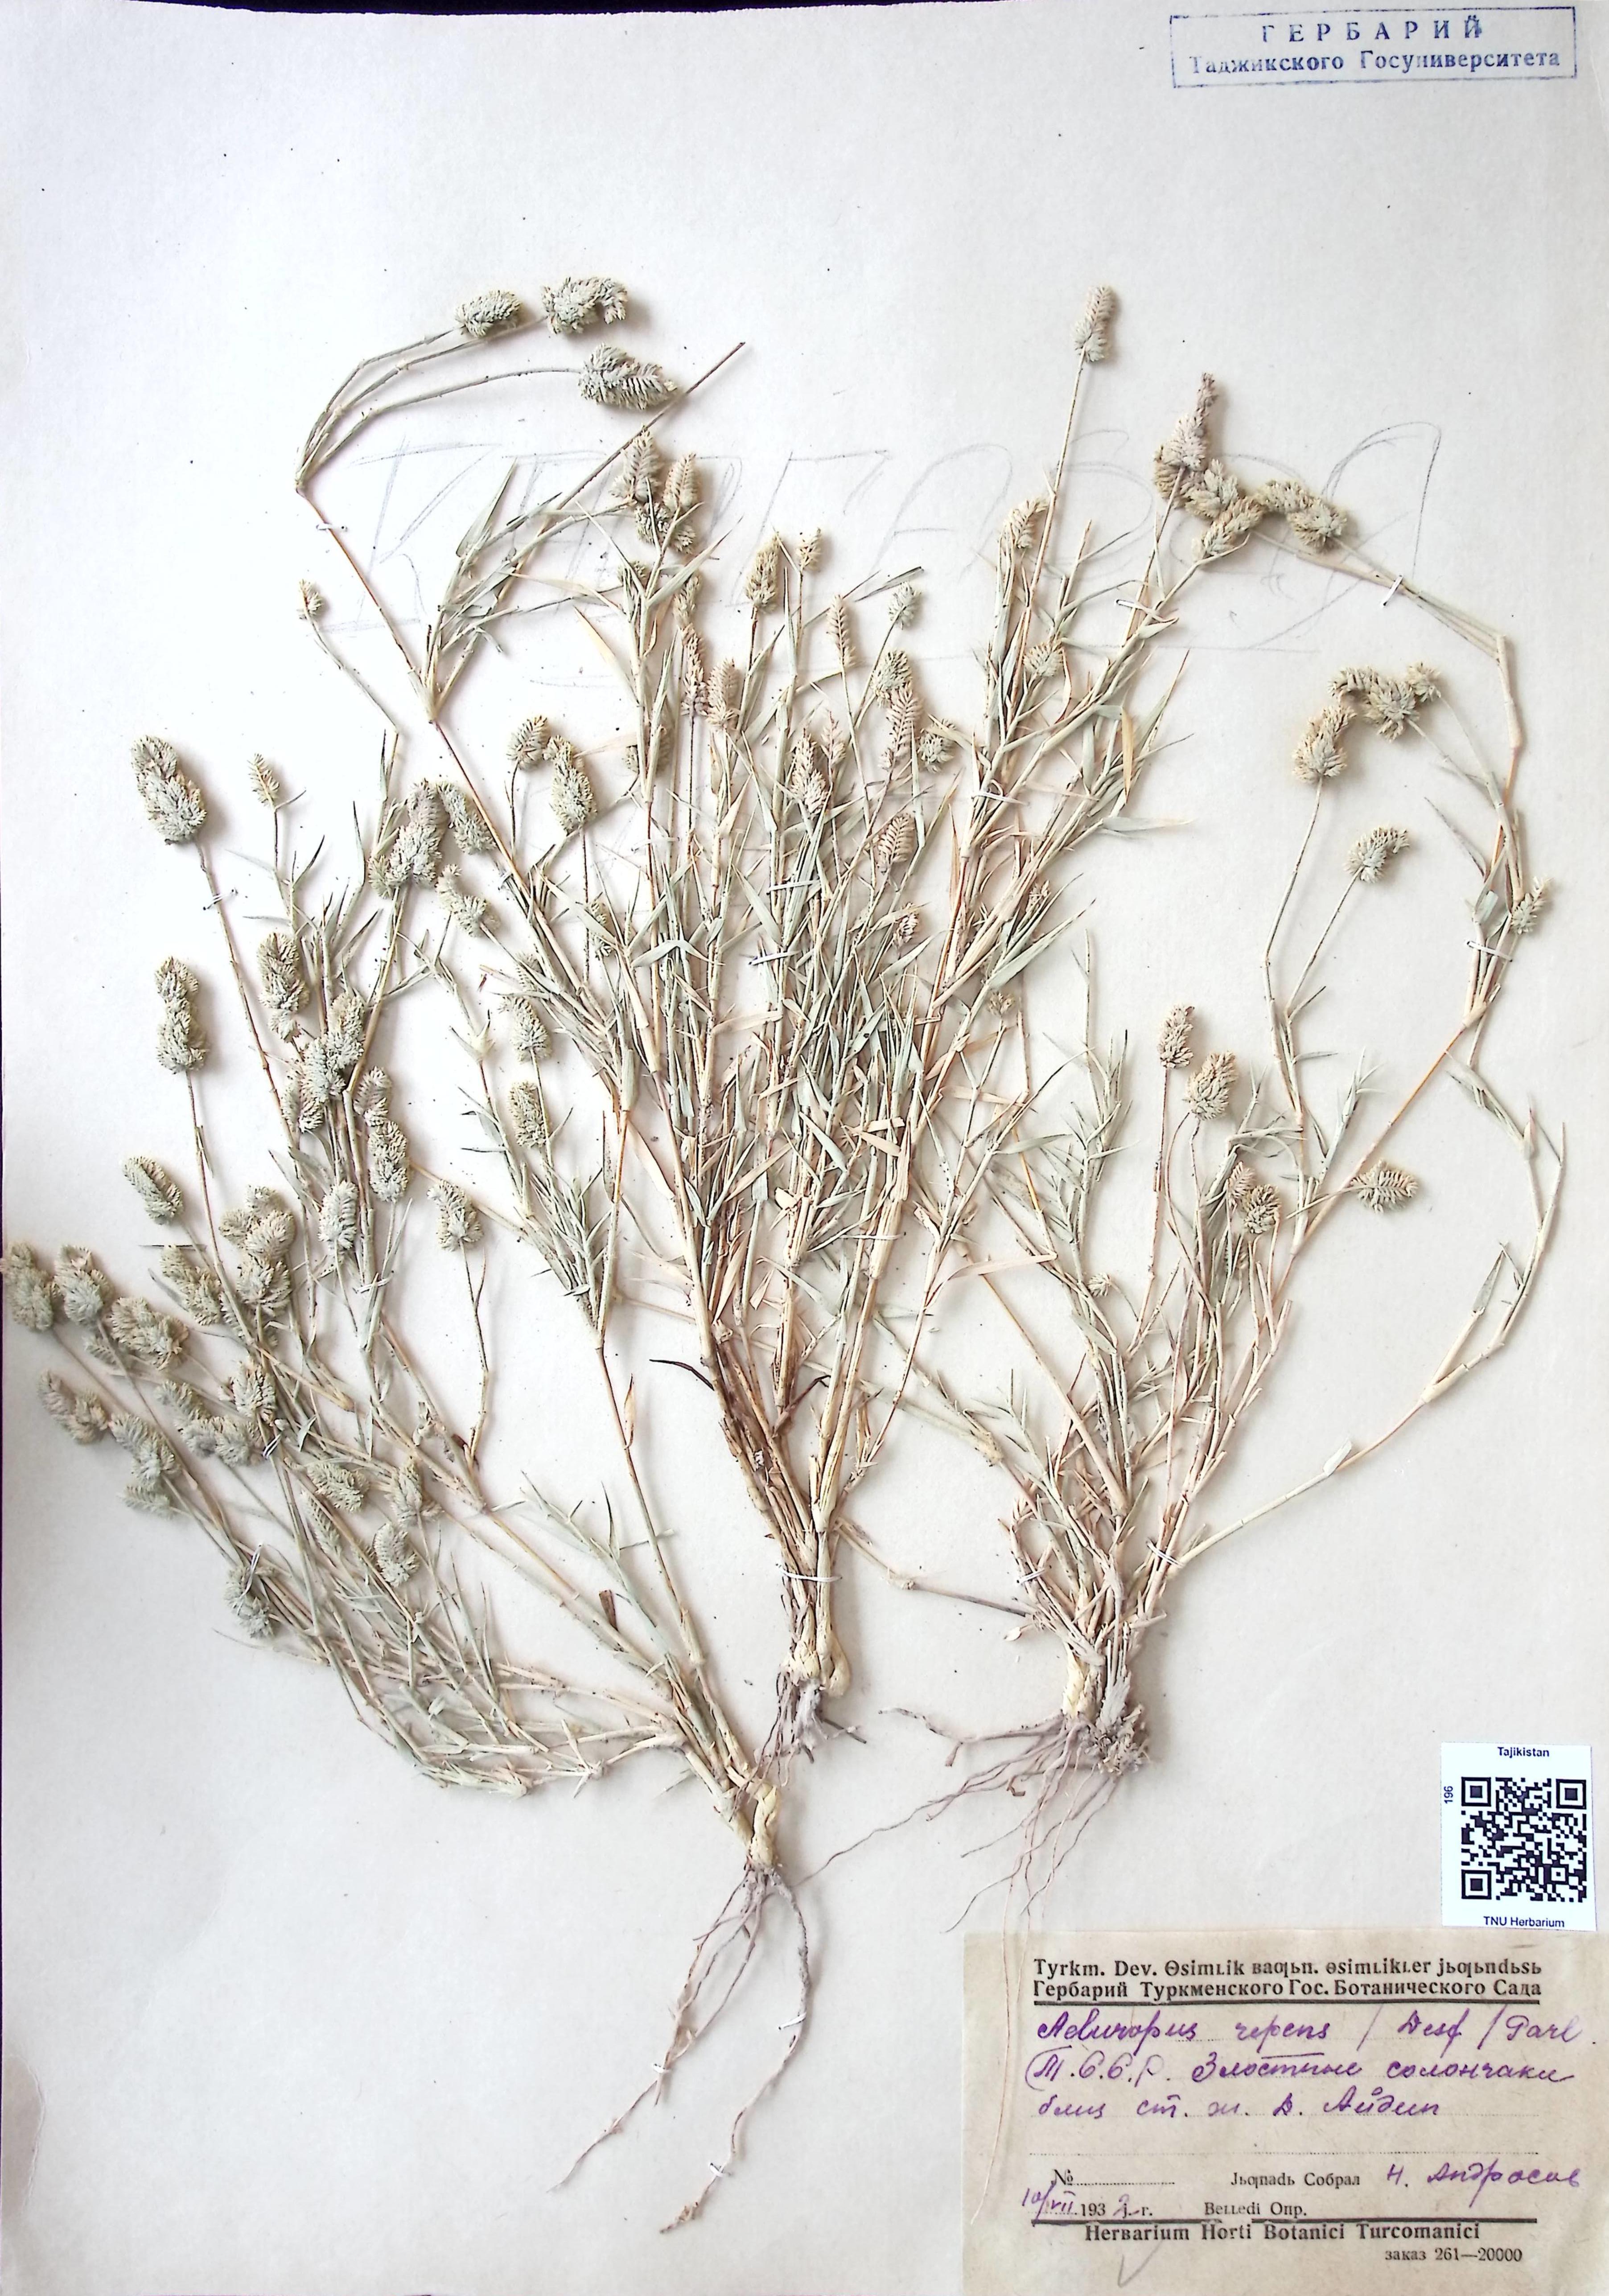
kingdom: Plantae
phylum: Tracheophyta
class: Liliopsida
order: Poales
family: Poaceae
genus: Aeluropus
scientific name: Aeluropus lagopoides
